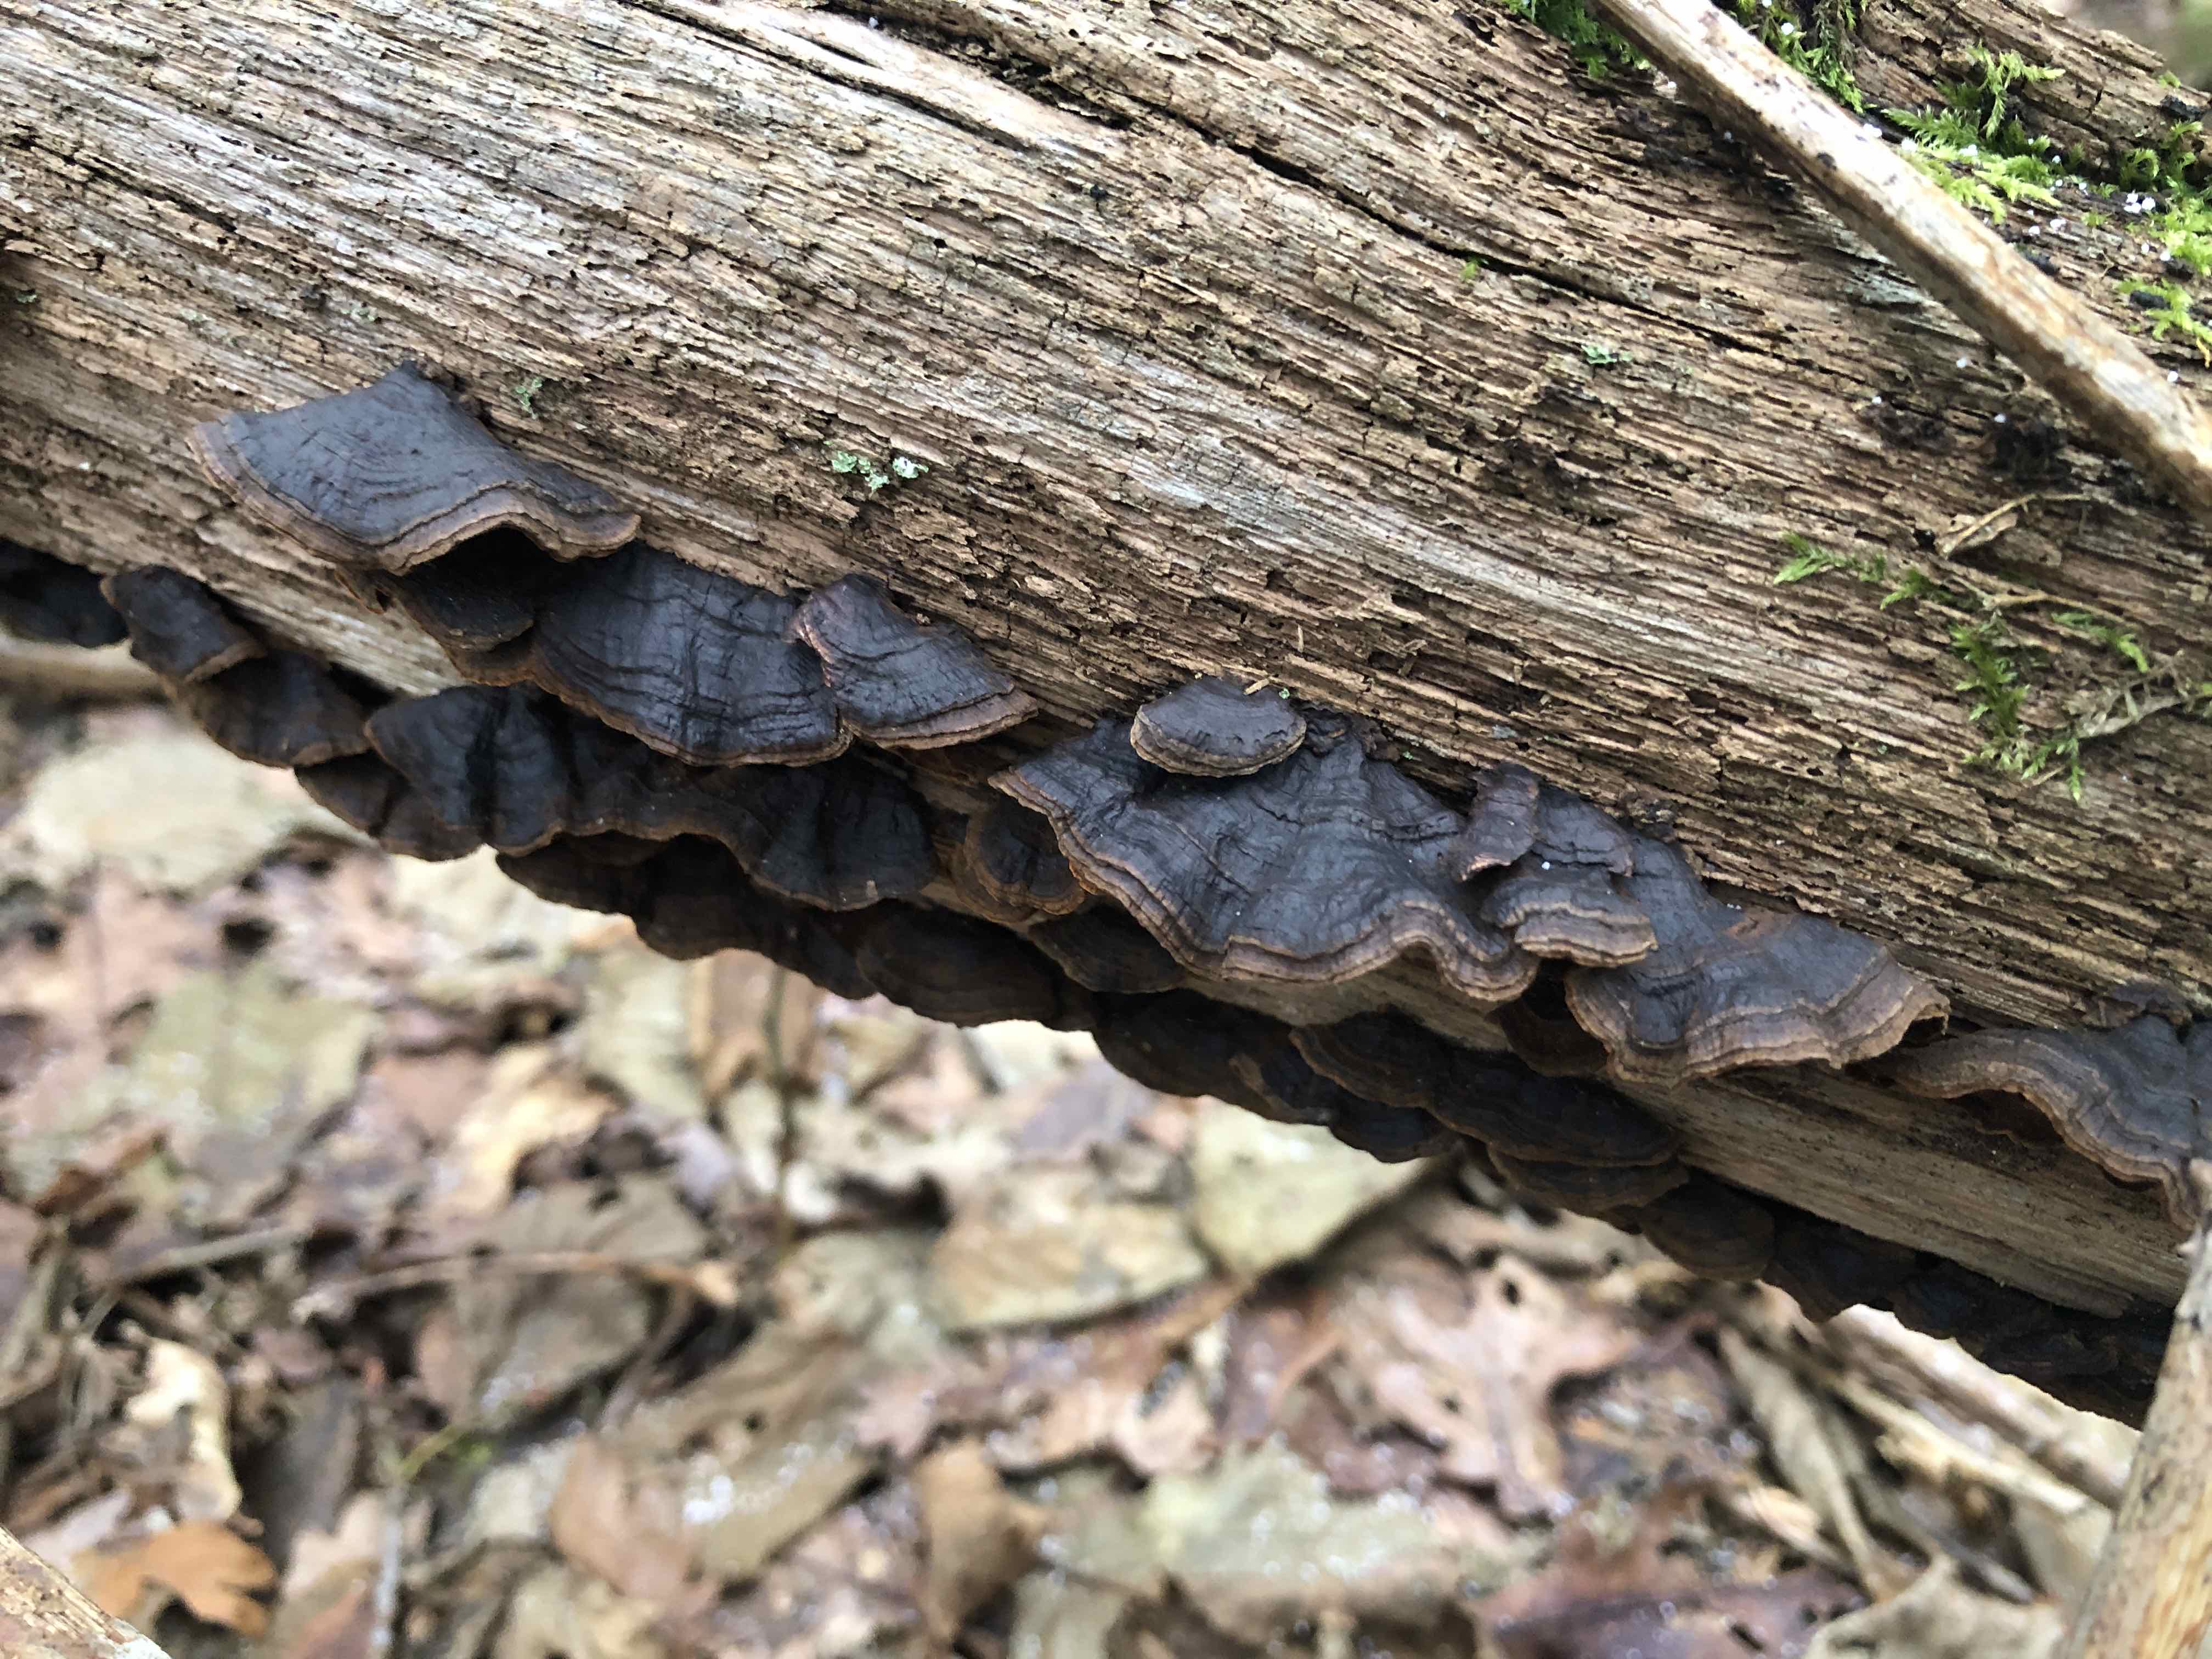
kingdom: Fungi
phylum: Basidiomycota
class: Agaricomycetes
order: Hymenochaetales
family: Hymenochaetaceae
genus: Hymenochaete
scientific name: Hymenochaete rubiginosa
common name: stiv ruslædersvamp
